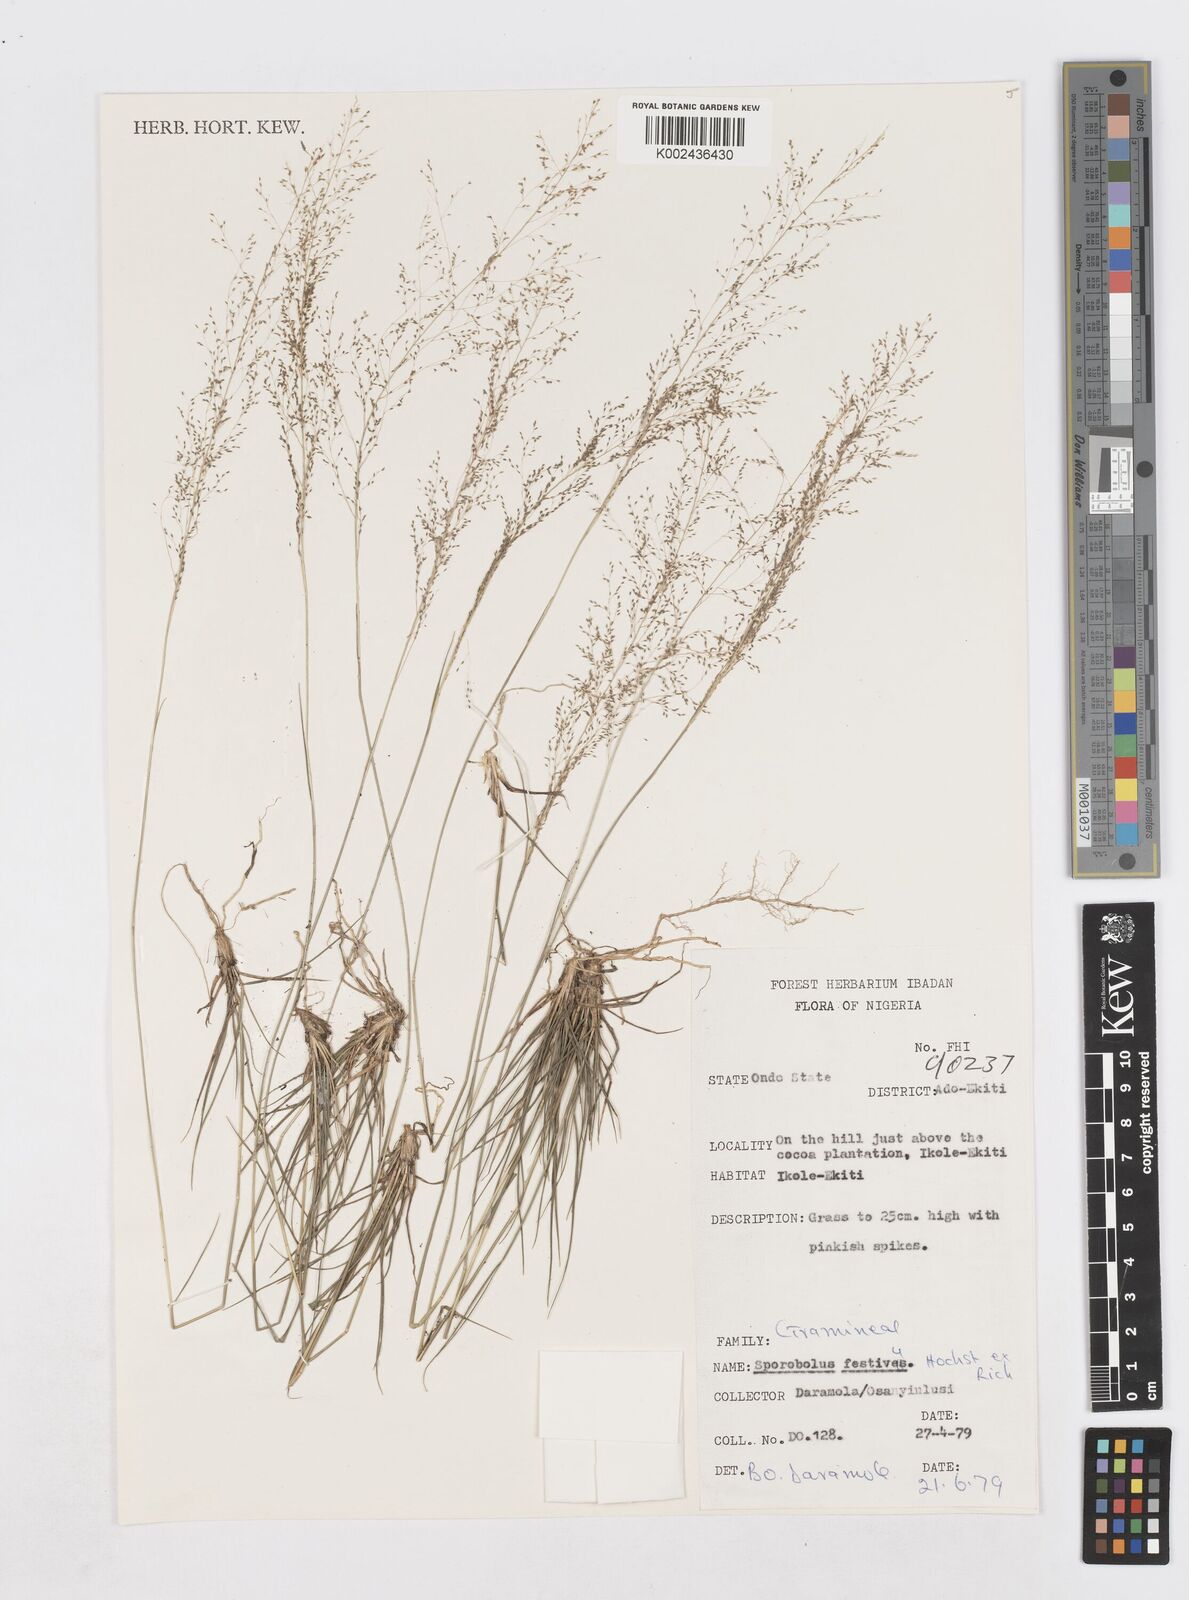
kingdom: Plantae
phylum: Tracheophyta
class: Liliopsida
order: Poales
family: Poaceae
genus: Sporobolus
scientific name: Sporobolus festivus
